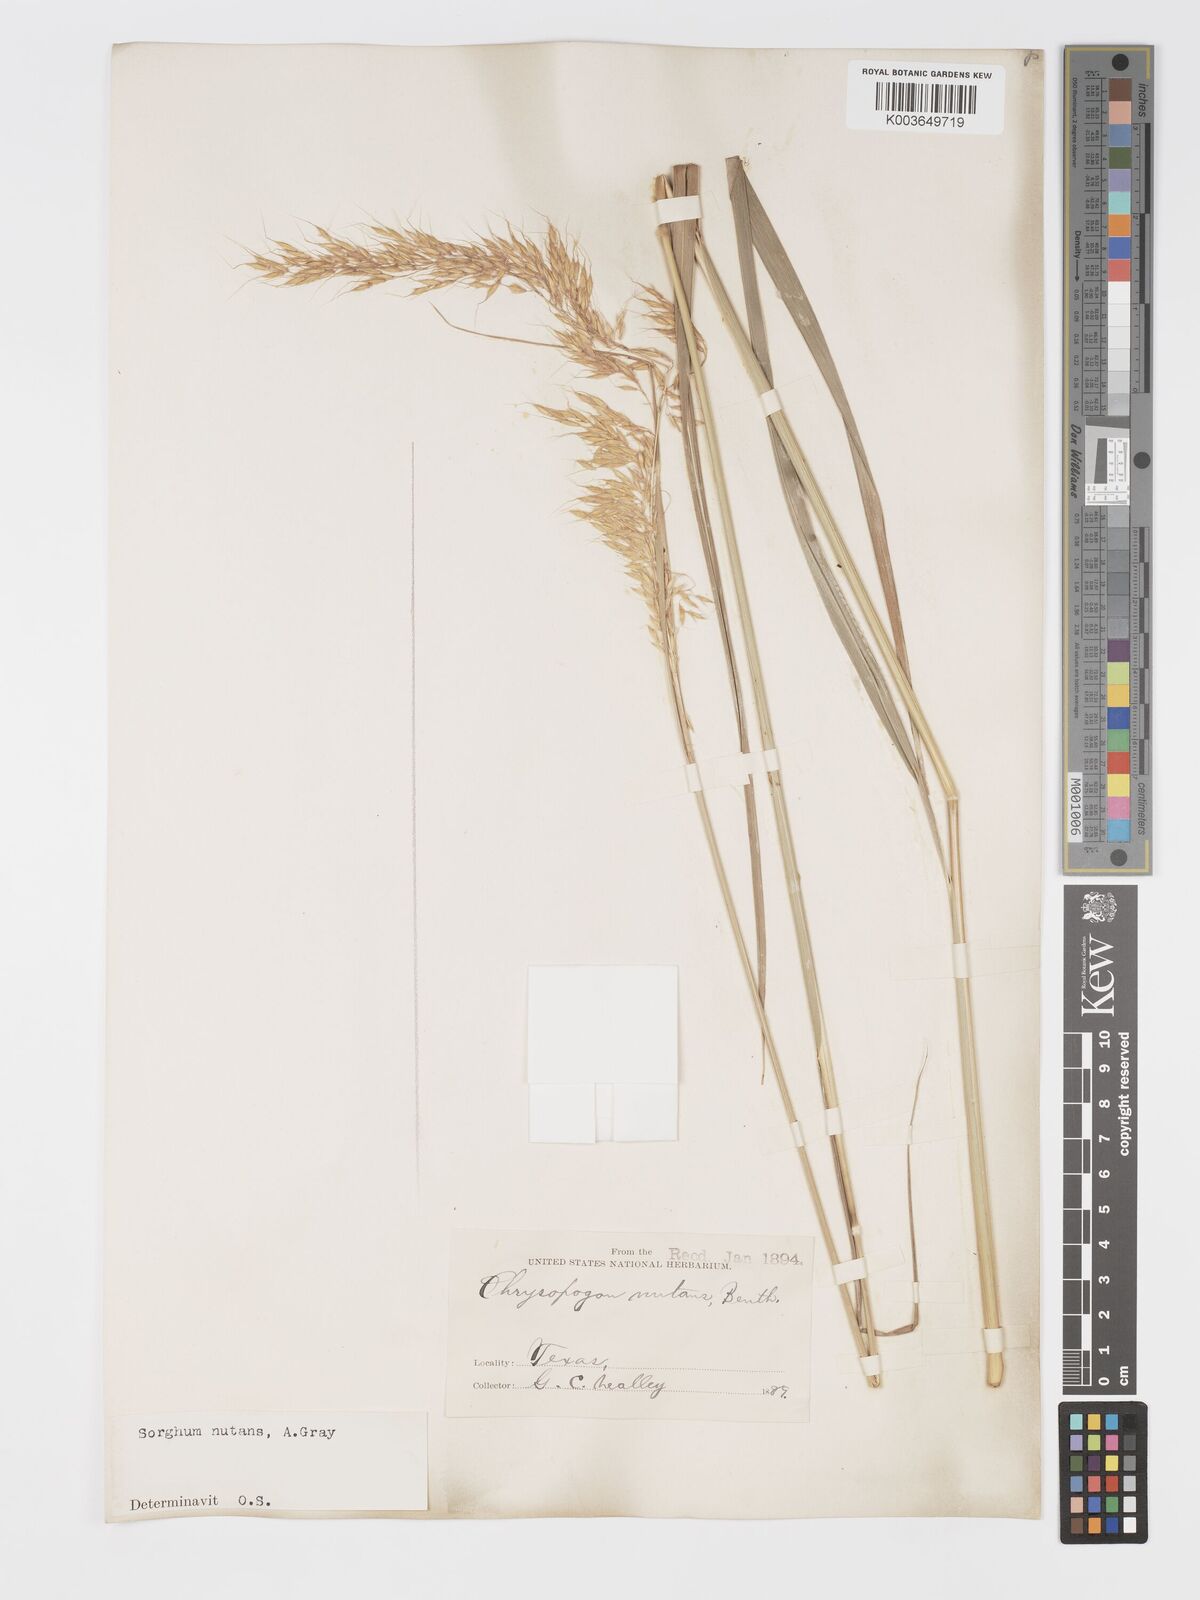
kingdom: Plantae
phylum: Tracheophyta
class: Liliopsida
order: Poales
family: Poaceae
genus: Sorghastrum
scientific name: Sorghastrum nutans
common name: Indian grass
